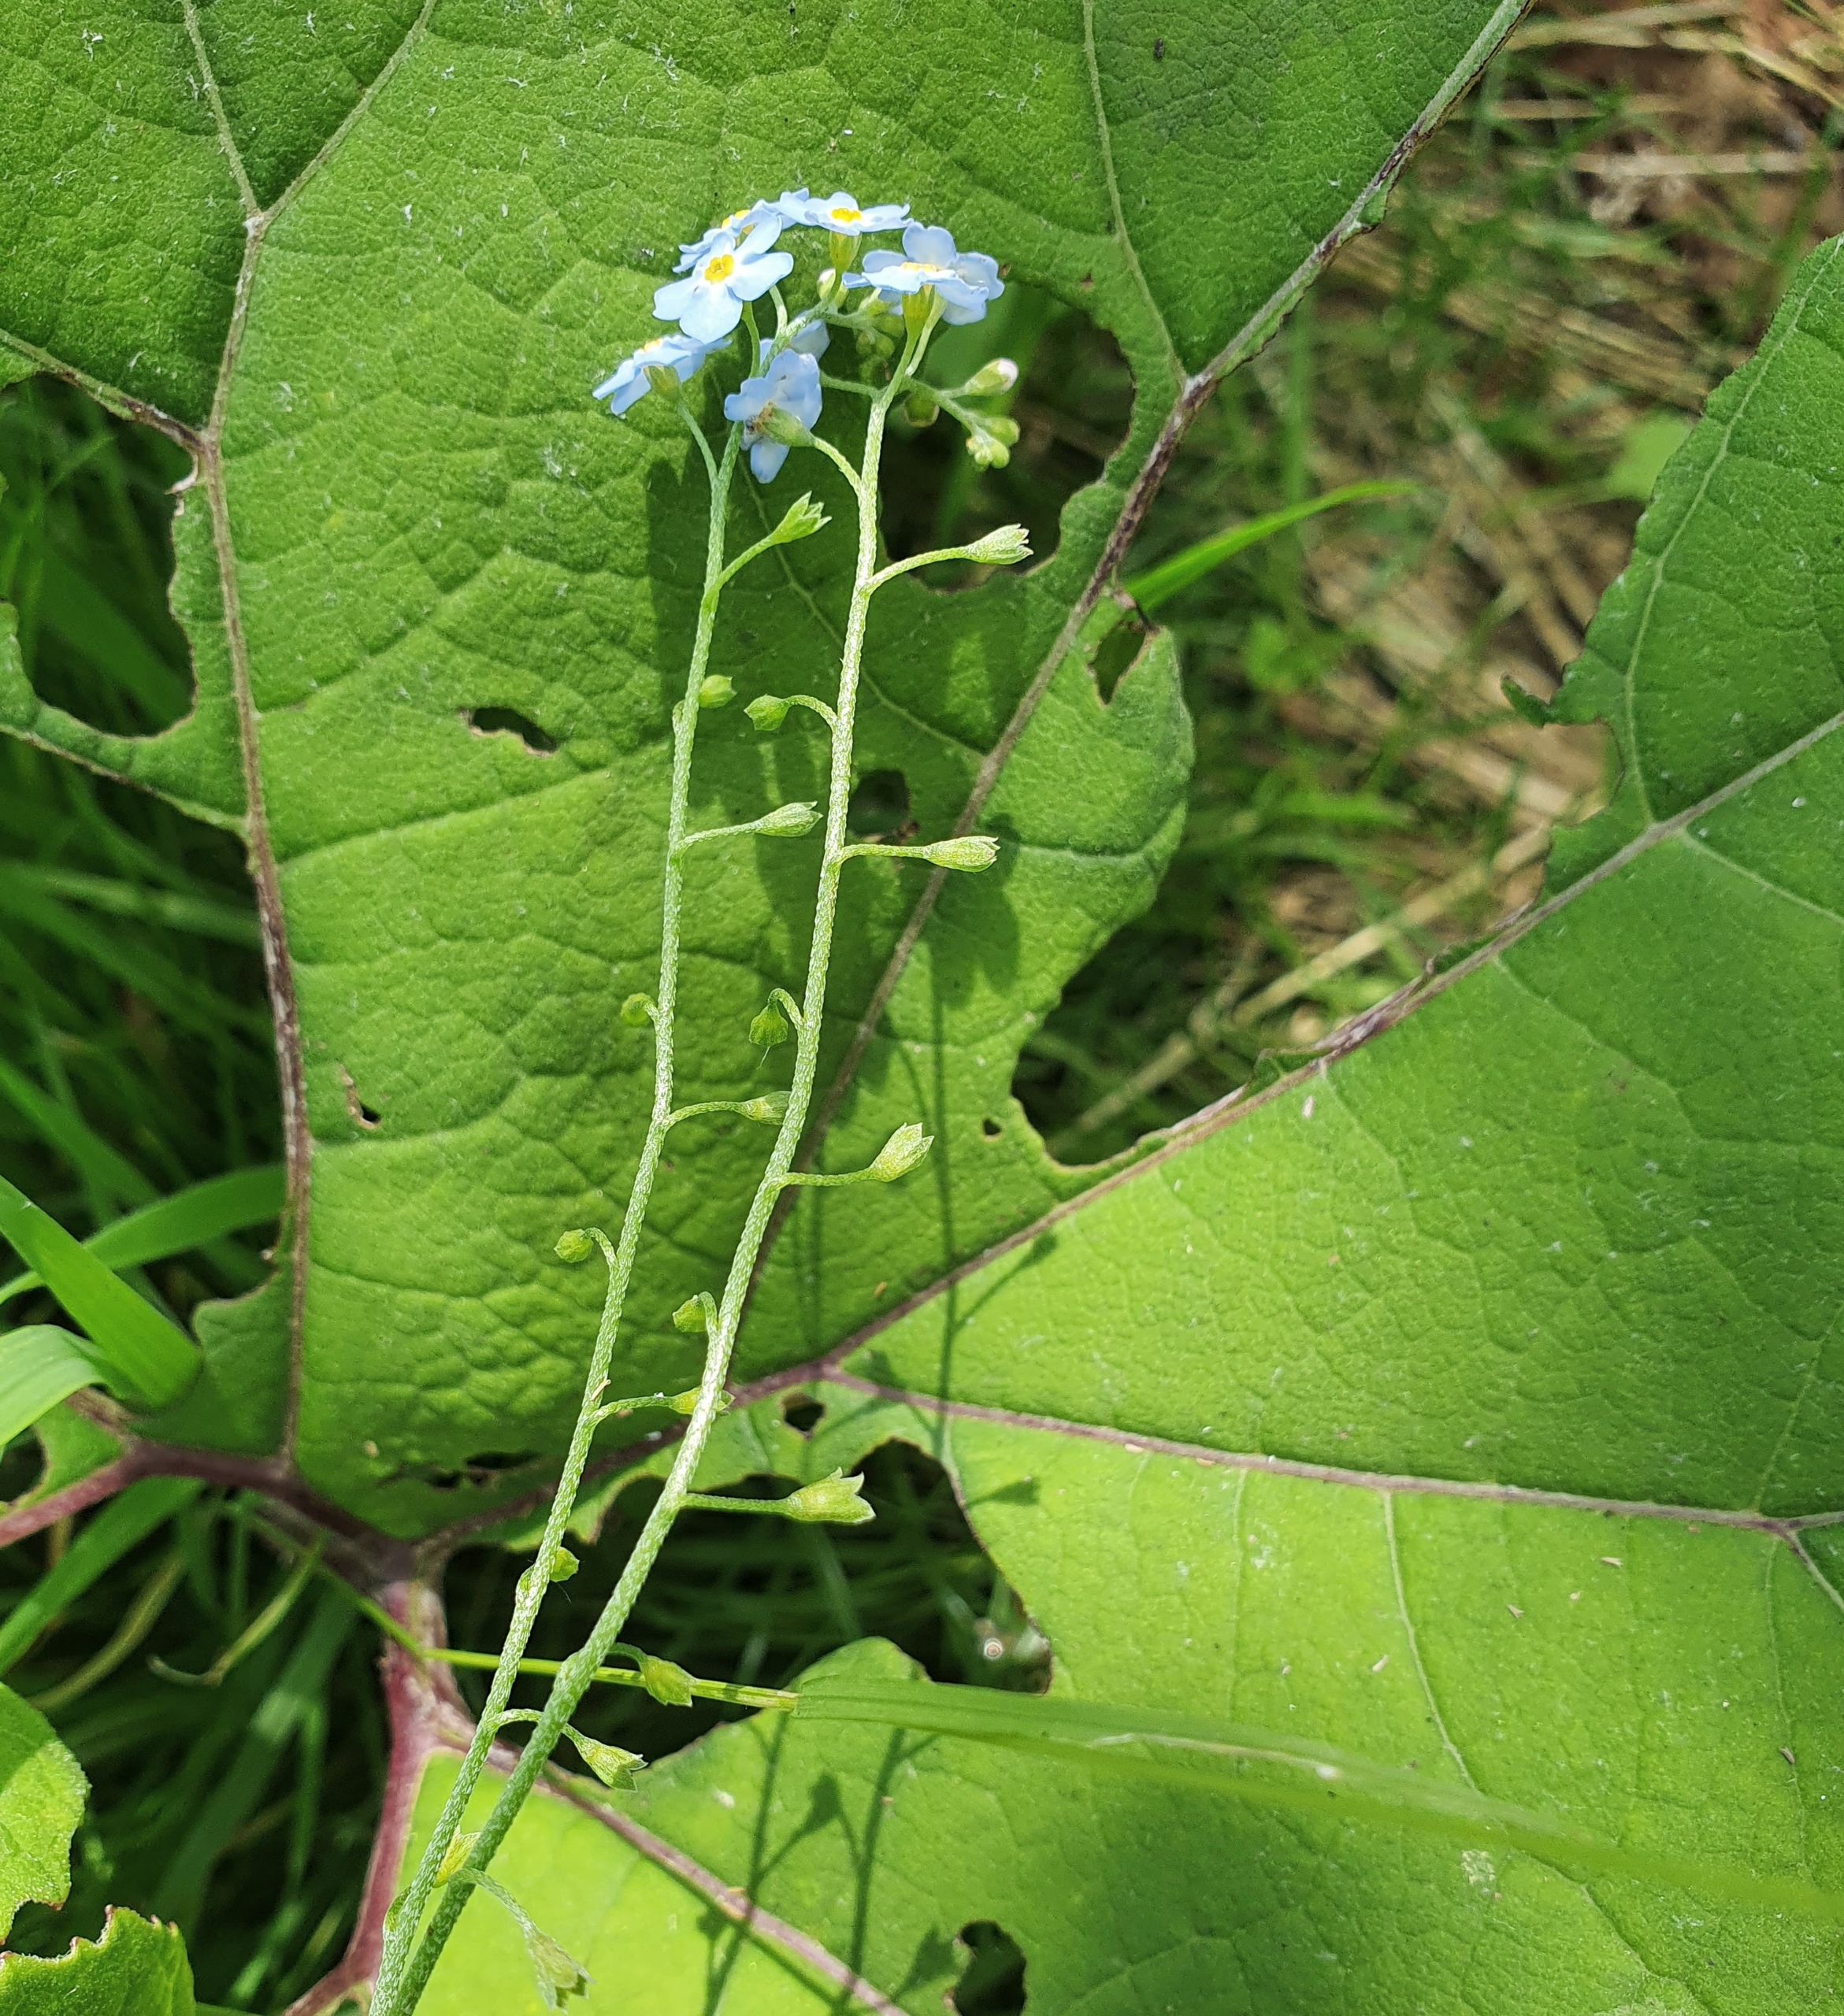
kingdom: Plantae
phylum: Tracheophyta
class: Magnoliopsida
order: Boraginales
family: Boraginaceae
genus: Myosotis
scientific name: Myosotis scorpioides
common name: Eng-forglemmigej
